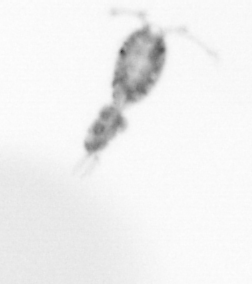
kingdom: Animalia
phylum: Arthropoda
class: Copepoda
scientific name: Copepoda
